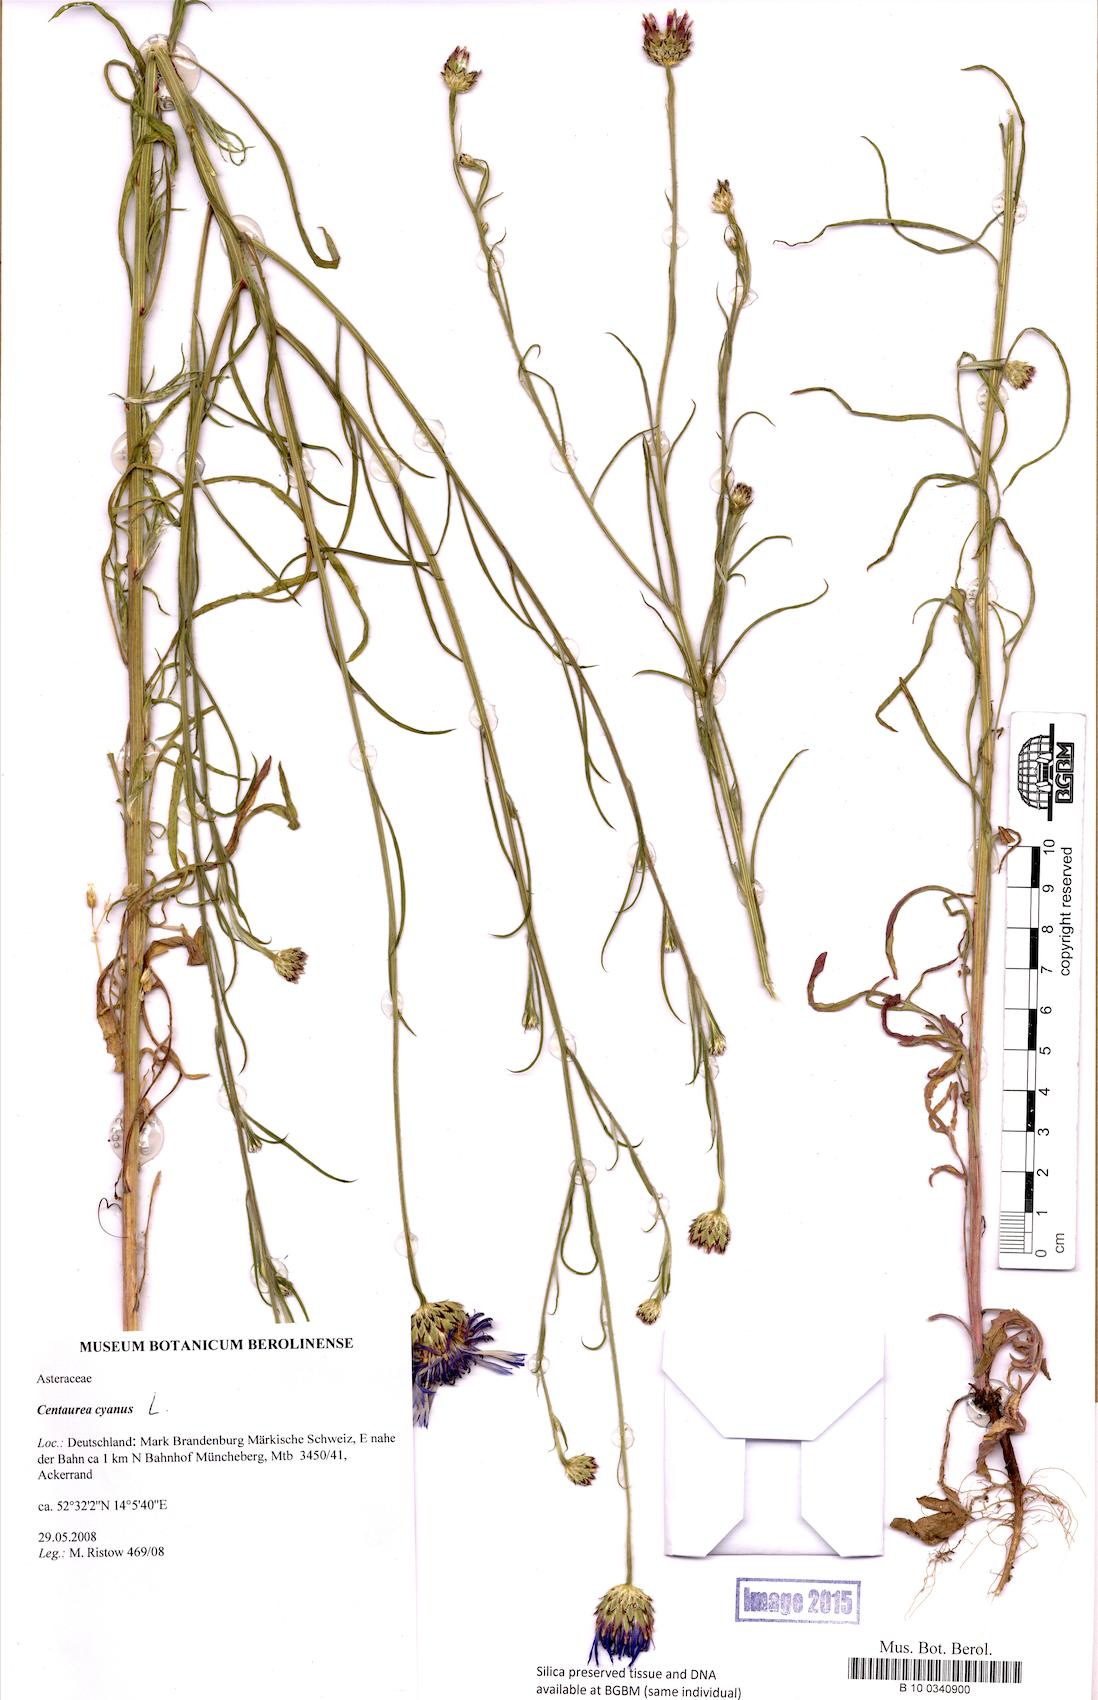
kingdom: Plantae
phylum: Tracheophyta
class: Magnoliopsida
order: Asterales
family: Asteraceae
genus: Centaurea
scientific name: Centaurea cyanus
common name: Cornflower
